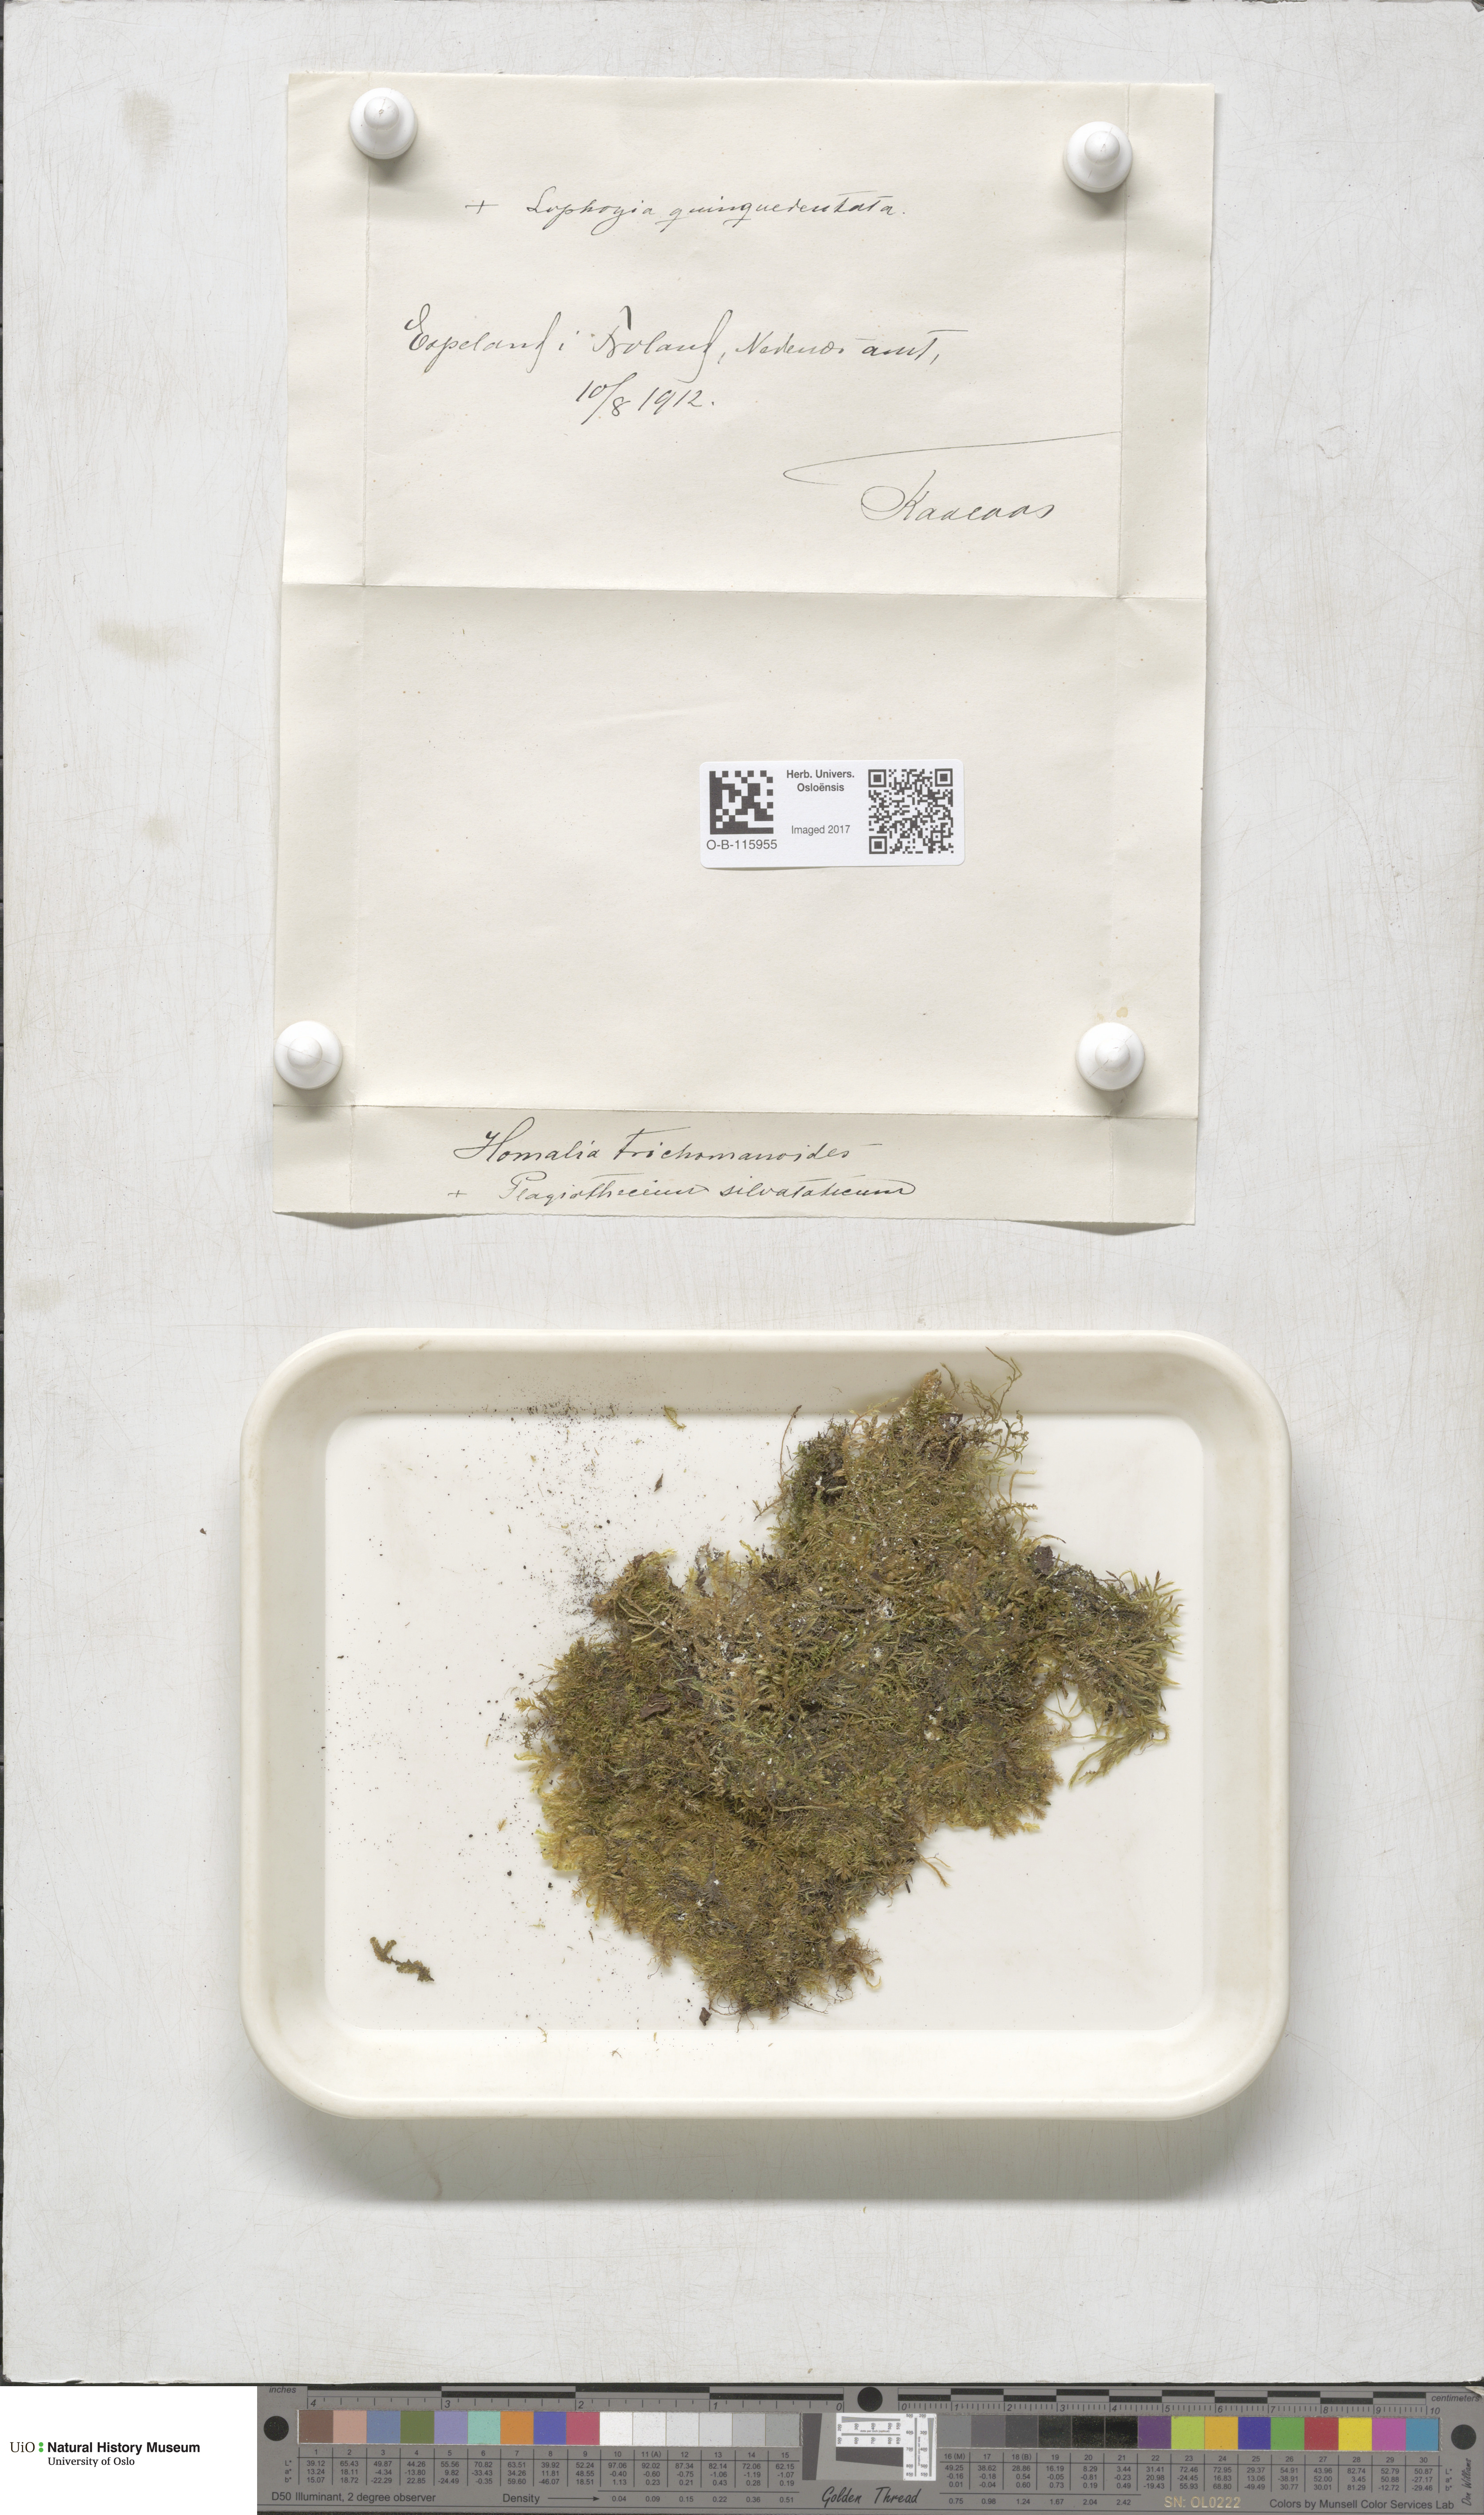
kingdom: Plantae
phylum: Bryophyta
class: Bryopsida
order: Hypnales
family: Neckeraceae
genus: Homalia
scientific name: Homalia trichomanoides
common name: Lime homalia moss
